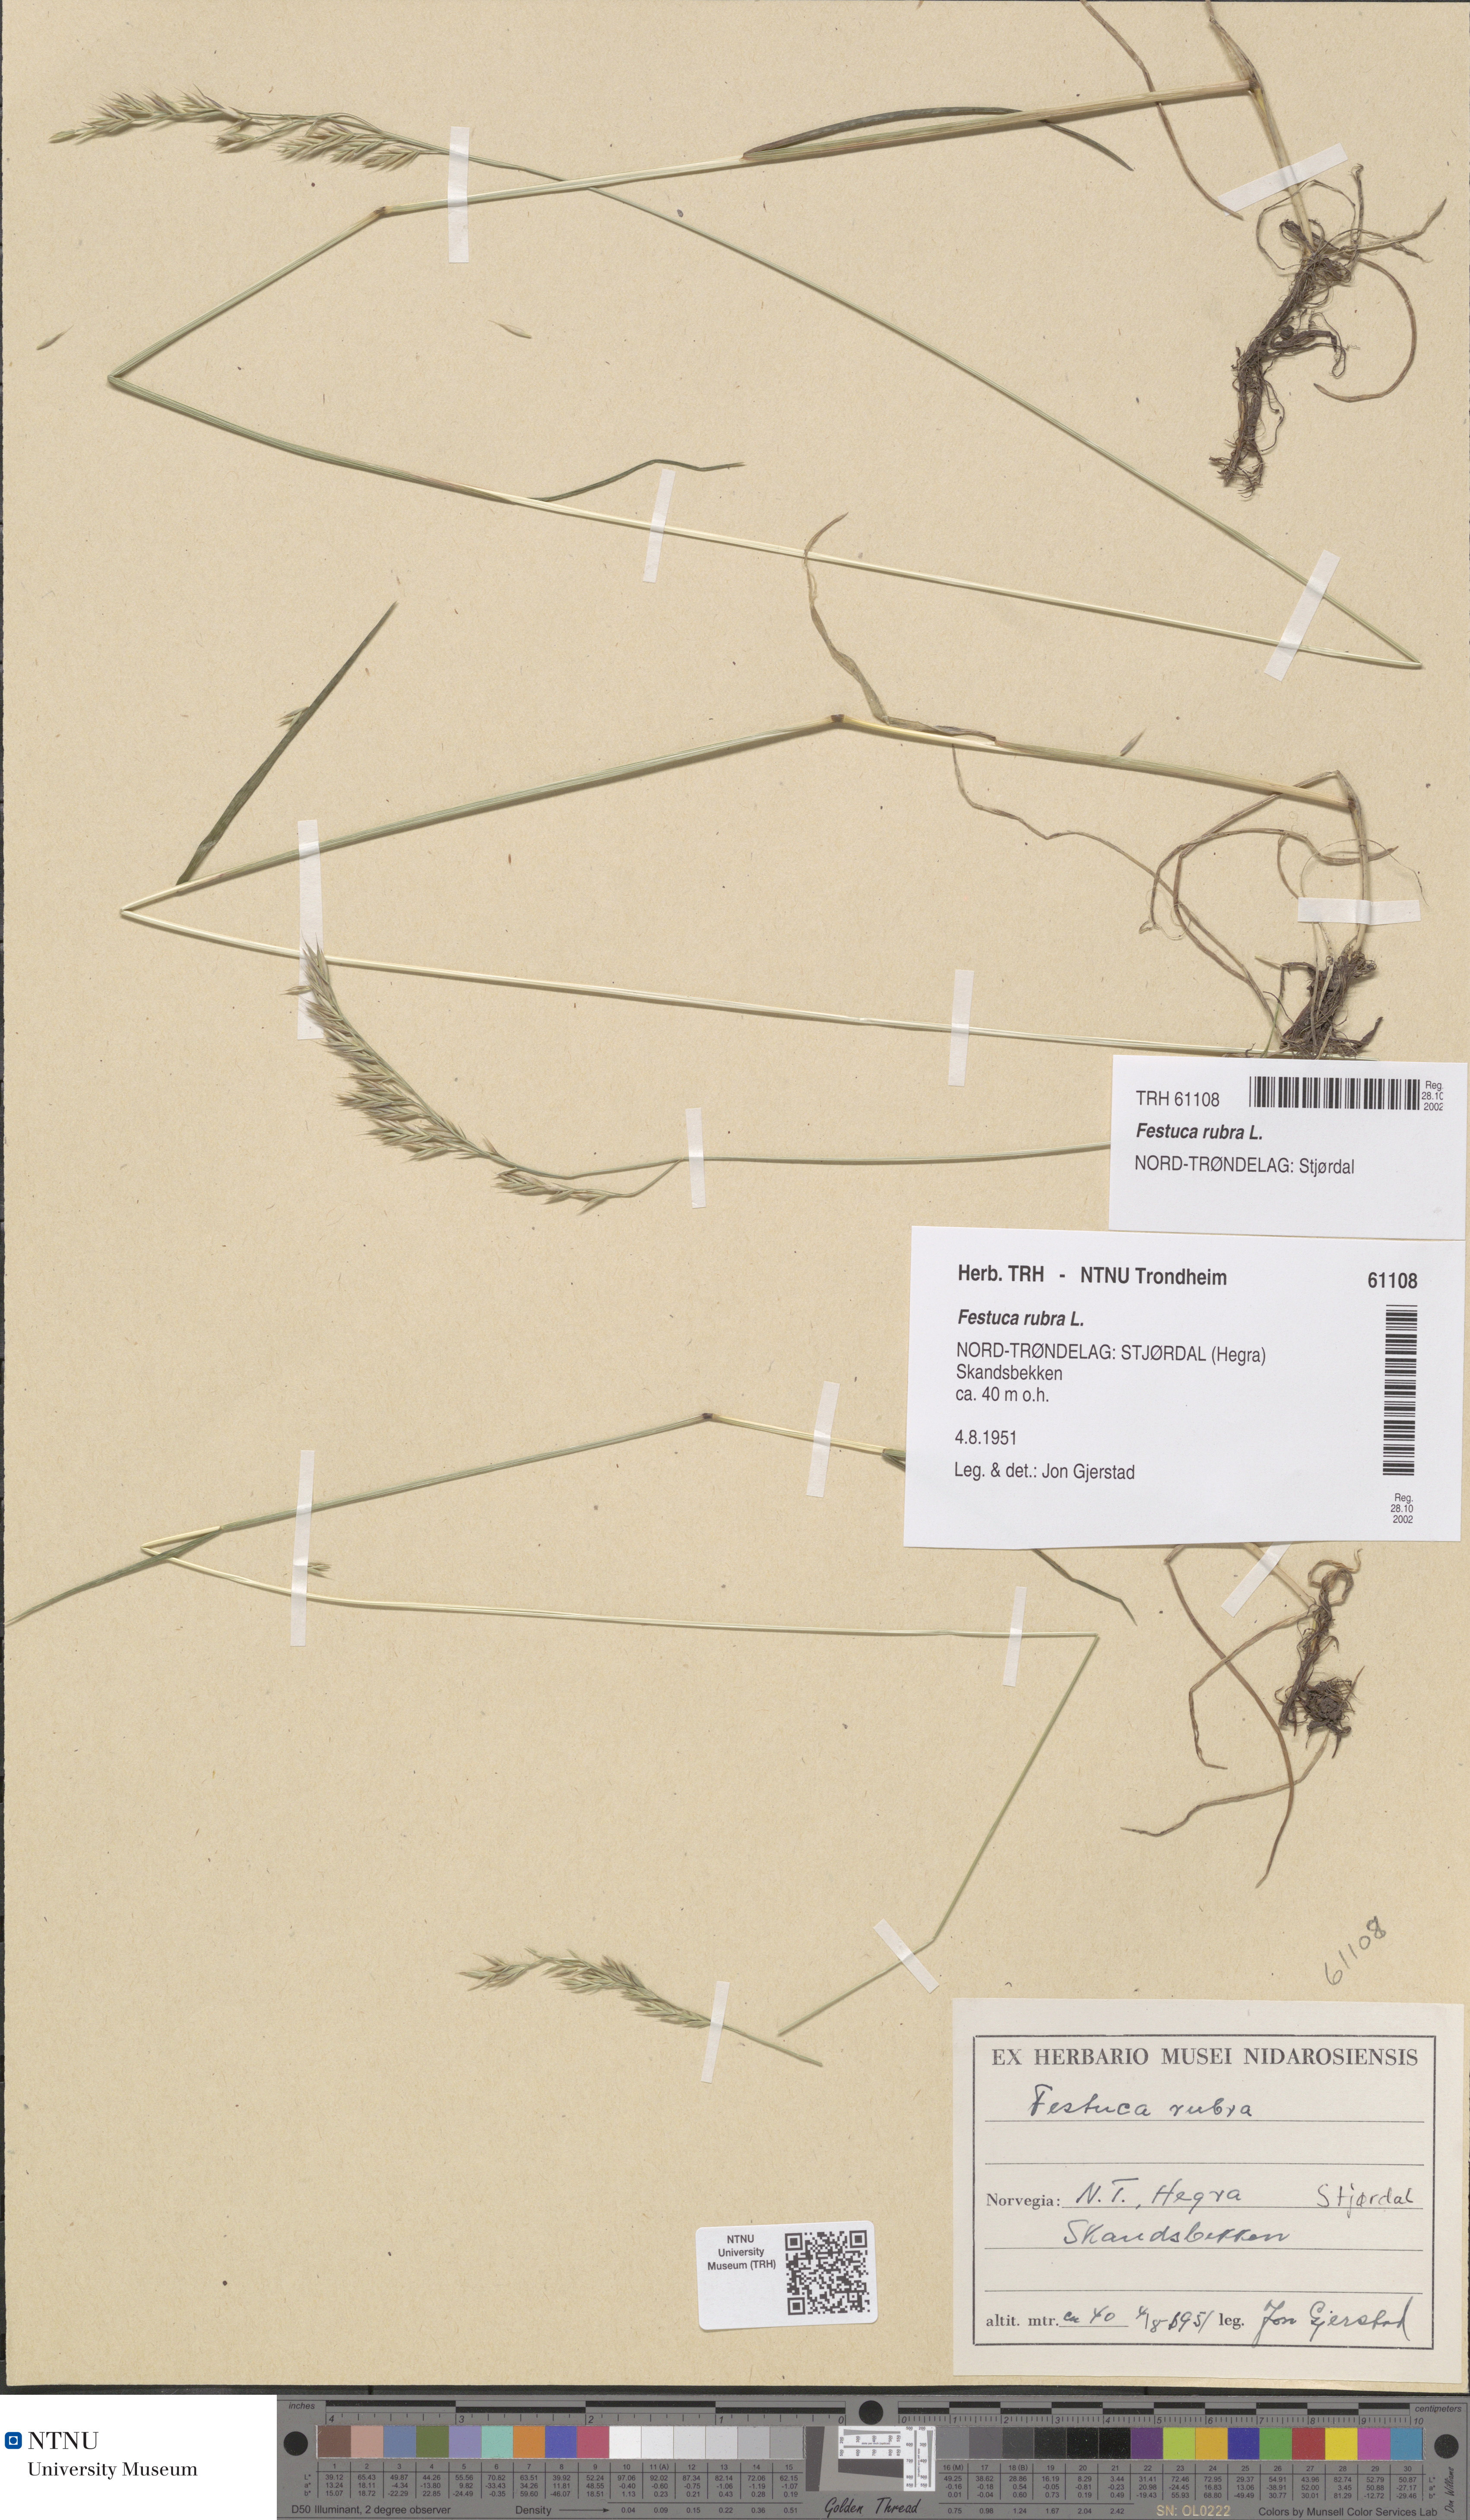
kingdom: Plantae
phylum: Tracheophyta
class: Liliopsida
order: Poales
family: Poaceae
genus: Festuca
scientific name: Festuca rubra
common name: Red fescue
